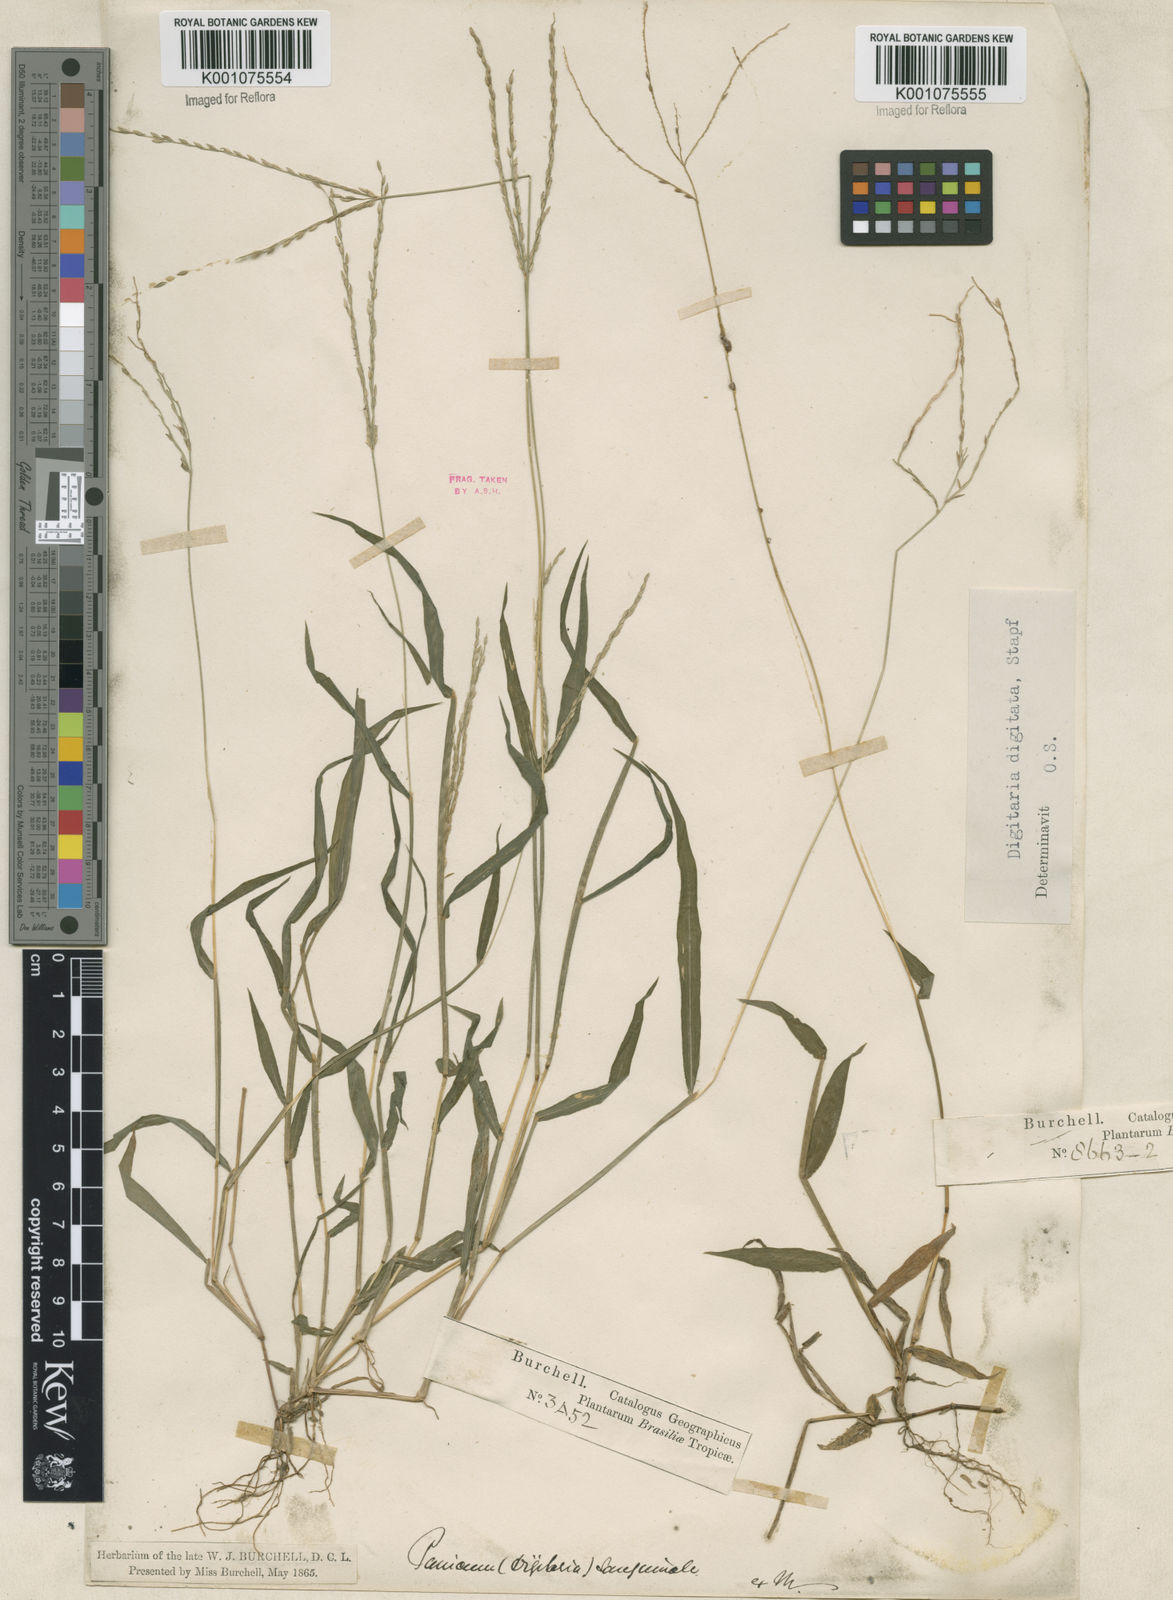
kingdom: Plantae
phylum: Tracheophyta
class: Liliopsida
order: Poales
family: Poaceae
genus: Digitaria
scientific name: Digitaria ciliaris
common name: Tropical finger-grass
